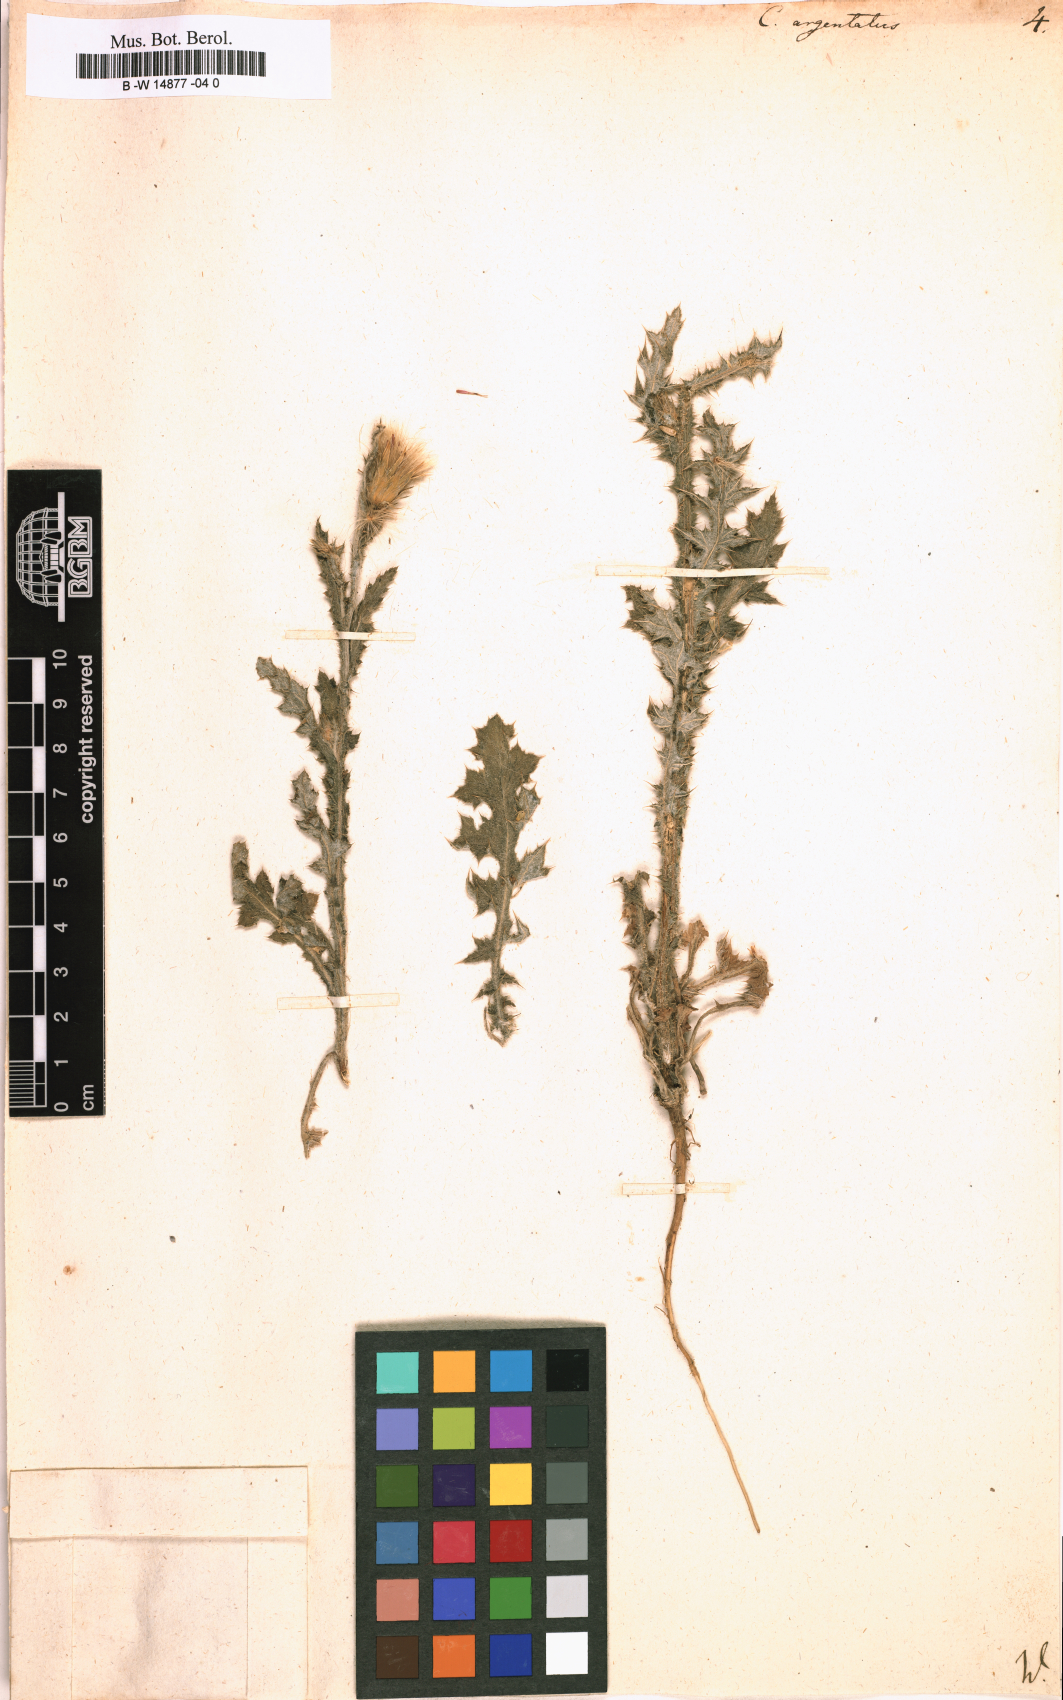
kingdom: Plantae
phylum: Tracheophyta
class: Magnoliopsida
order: Asterales
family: Asteraceae
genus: Carduus
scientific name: Carduus argentatus
